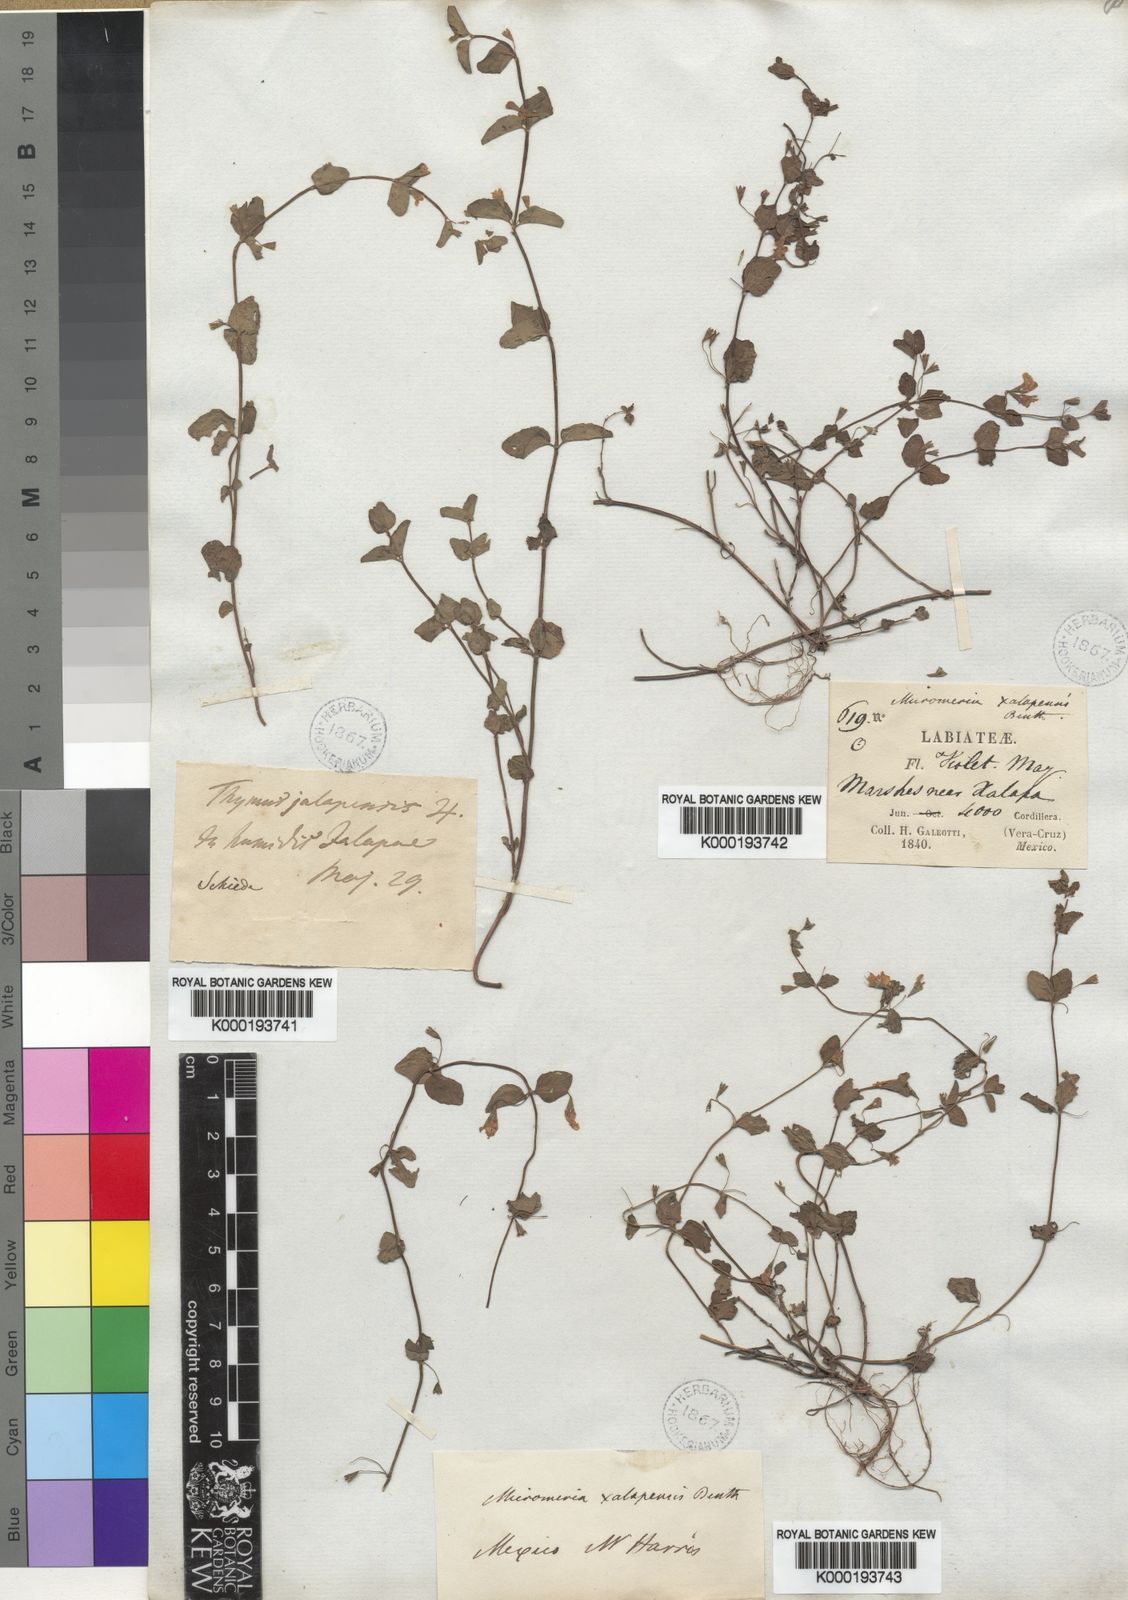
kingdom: Plantae
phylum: Tracheophyta
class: Magnoliopsida
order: Lamiales
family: Lamiaceae
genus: Thymus
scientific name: Thymus daenensis
